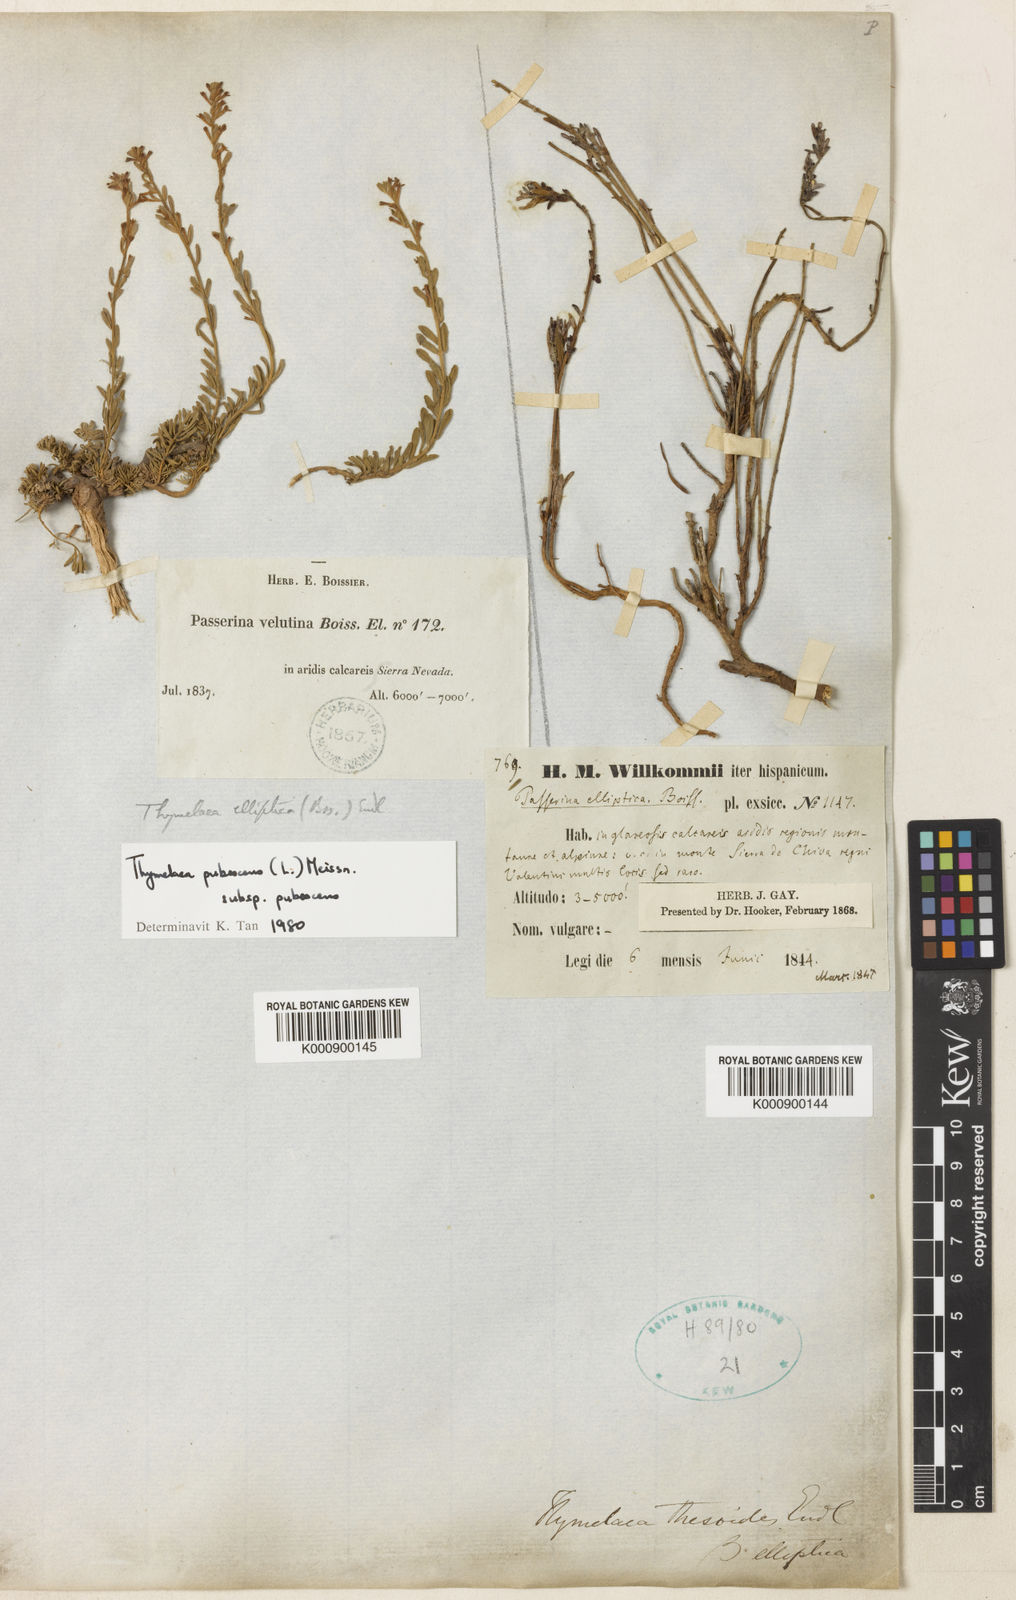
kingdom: Plantae
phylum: Tracheophyta
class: Magnoliopsida
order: Malvales
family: Thymelaeaceae
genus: Thymelaea
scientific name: Thymelaea pubescens
